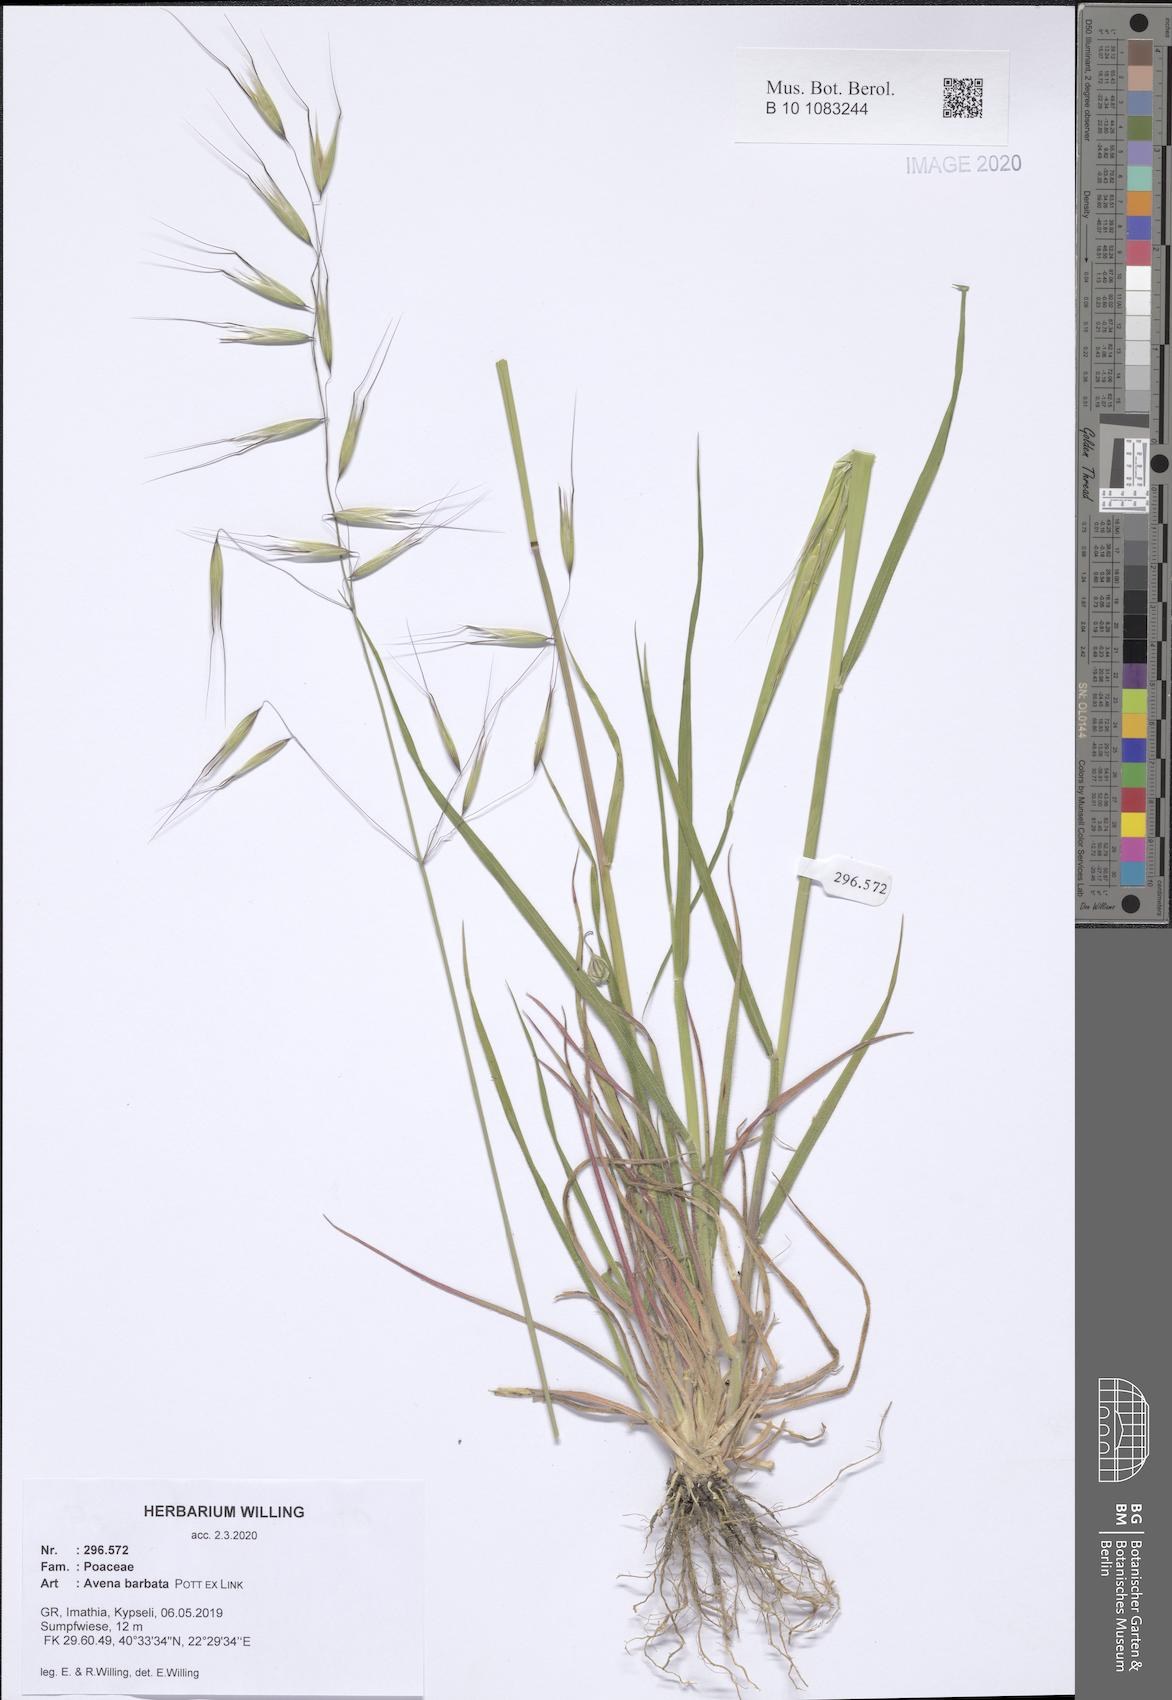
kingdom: Plantae
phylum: Tracheophyta
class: Liliopsida
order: Poales
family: Poaceae
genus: Avena
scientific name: Avena barbata
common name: Slender oat
